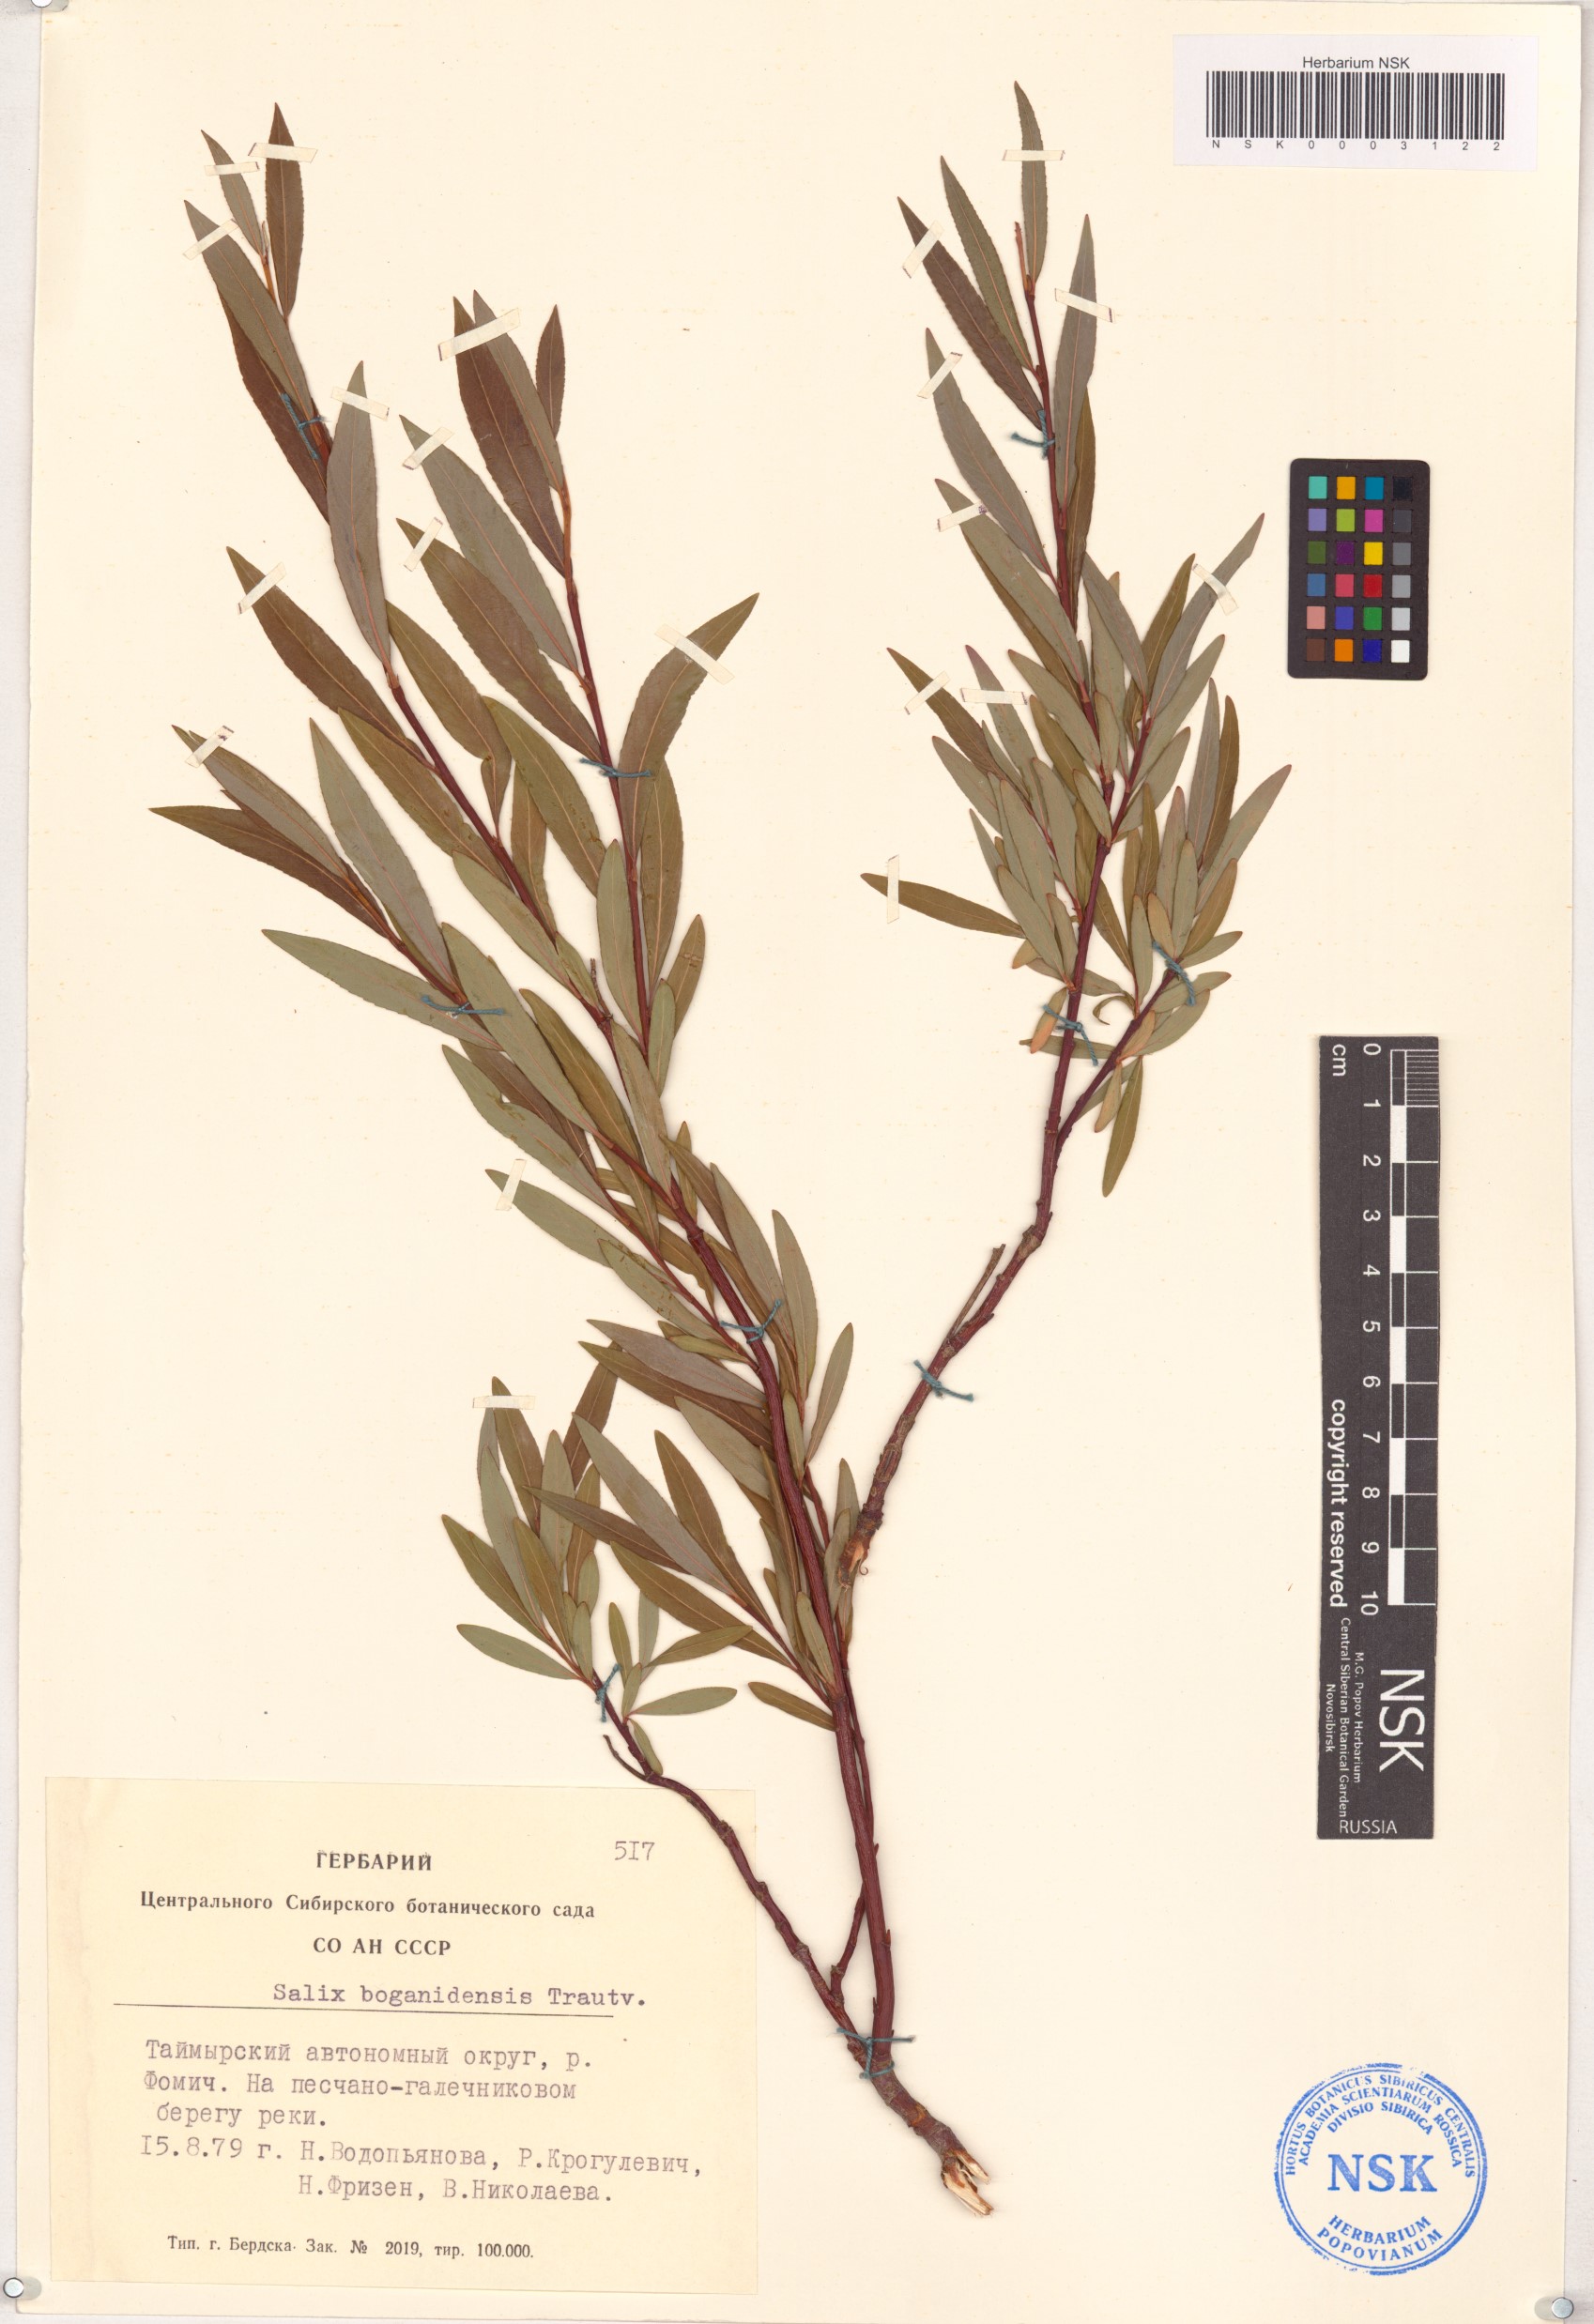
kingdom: Plantae
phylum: Tracheophyta
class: Magnoliopsida
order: Malpighiales
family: Salicaceae
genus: Salix
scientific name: Salix boganidensis
